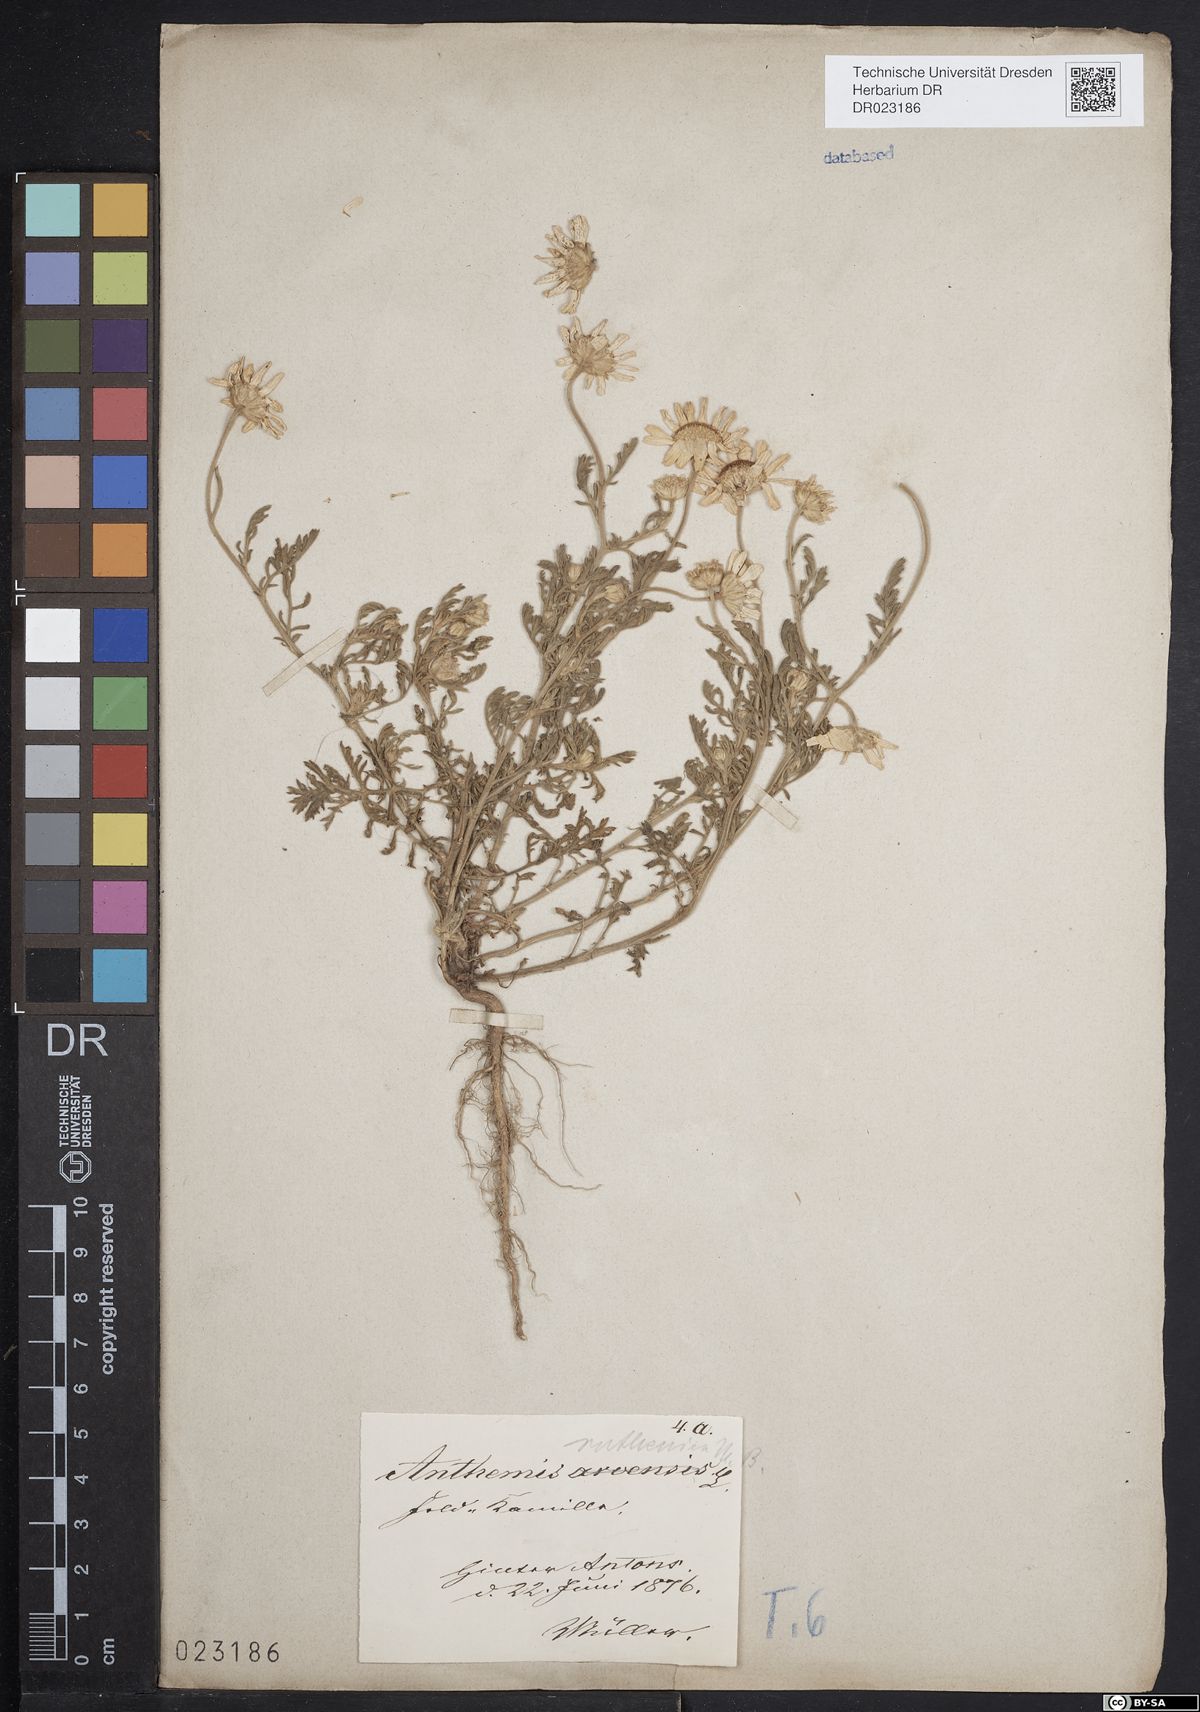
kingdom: Plantae
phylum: Tracheophyta
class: Magnoliopsida
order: Asterales
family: Asteraceae
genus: Anthemis
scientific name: Anthemis ruthenica
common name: Eastern chamomile
